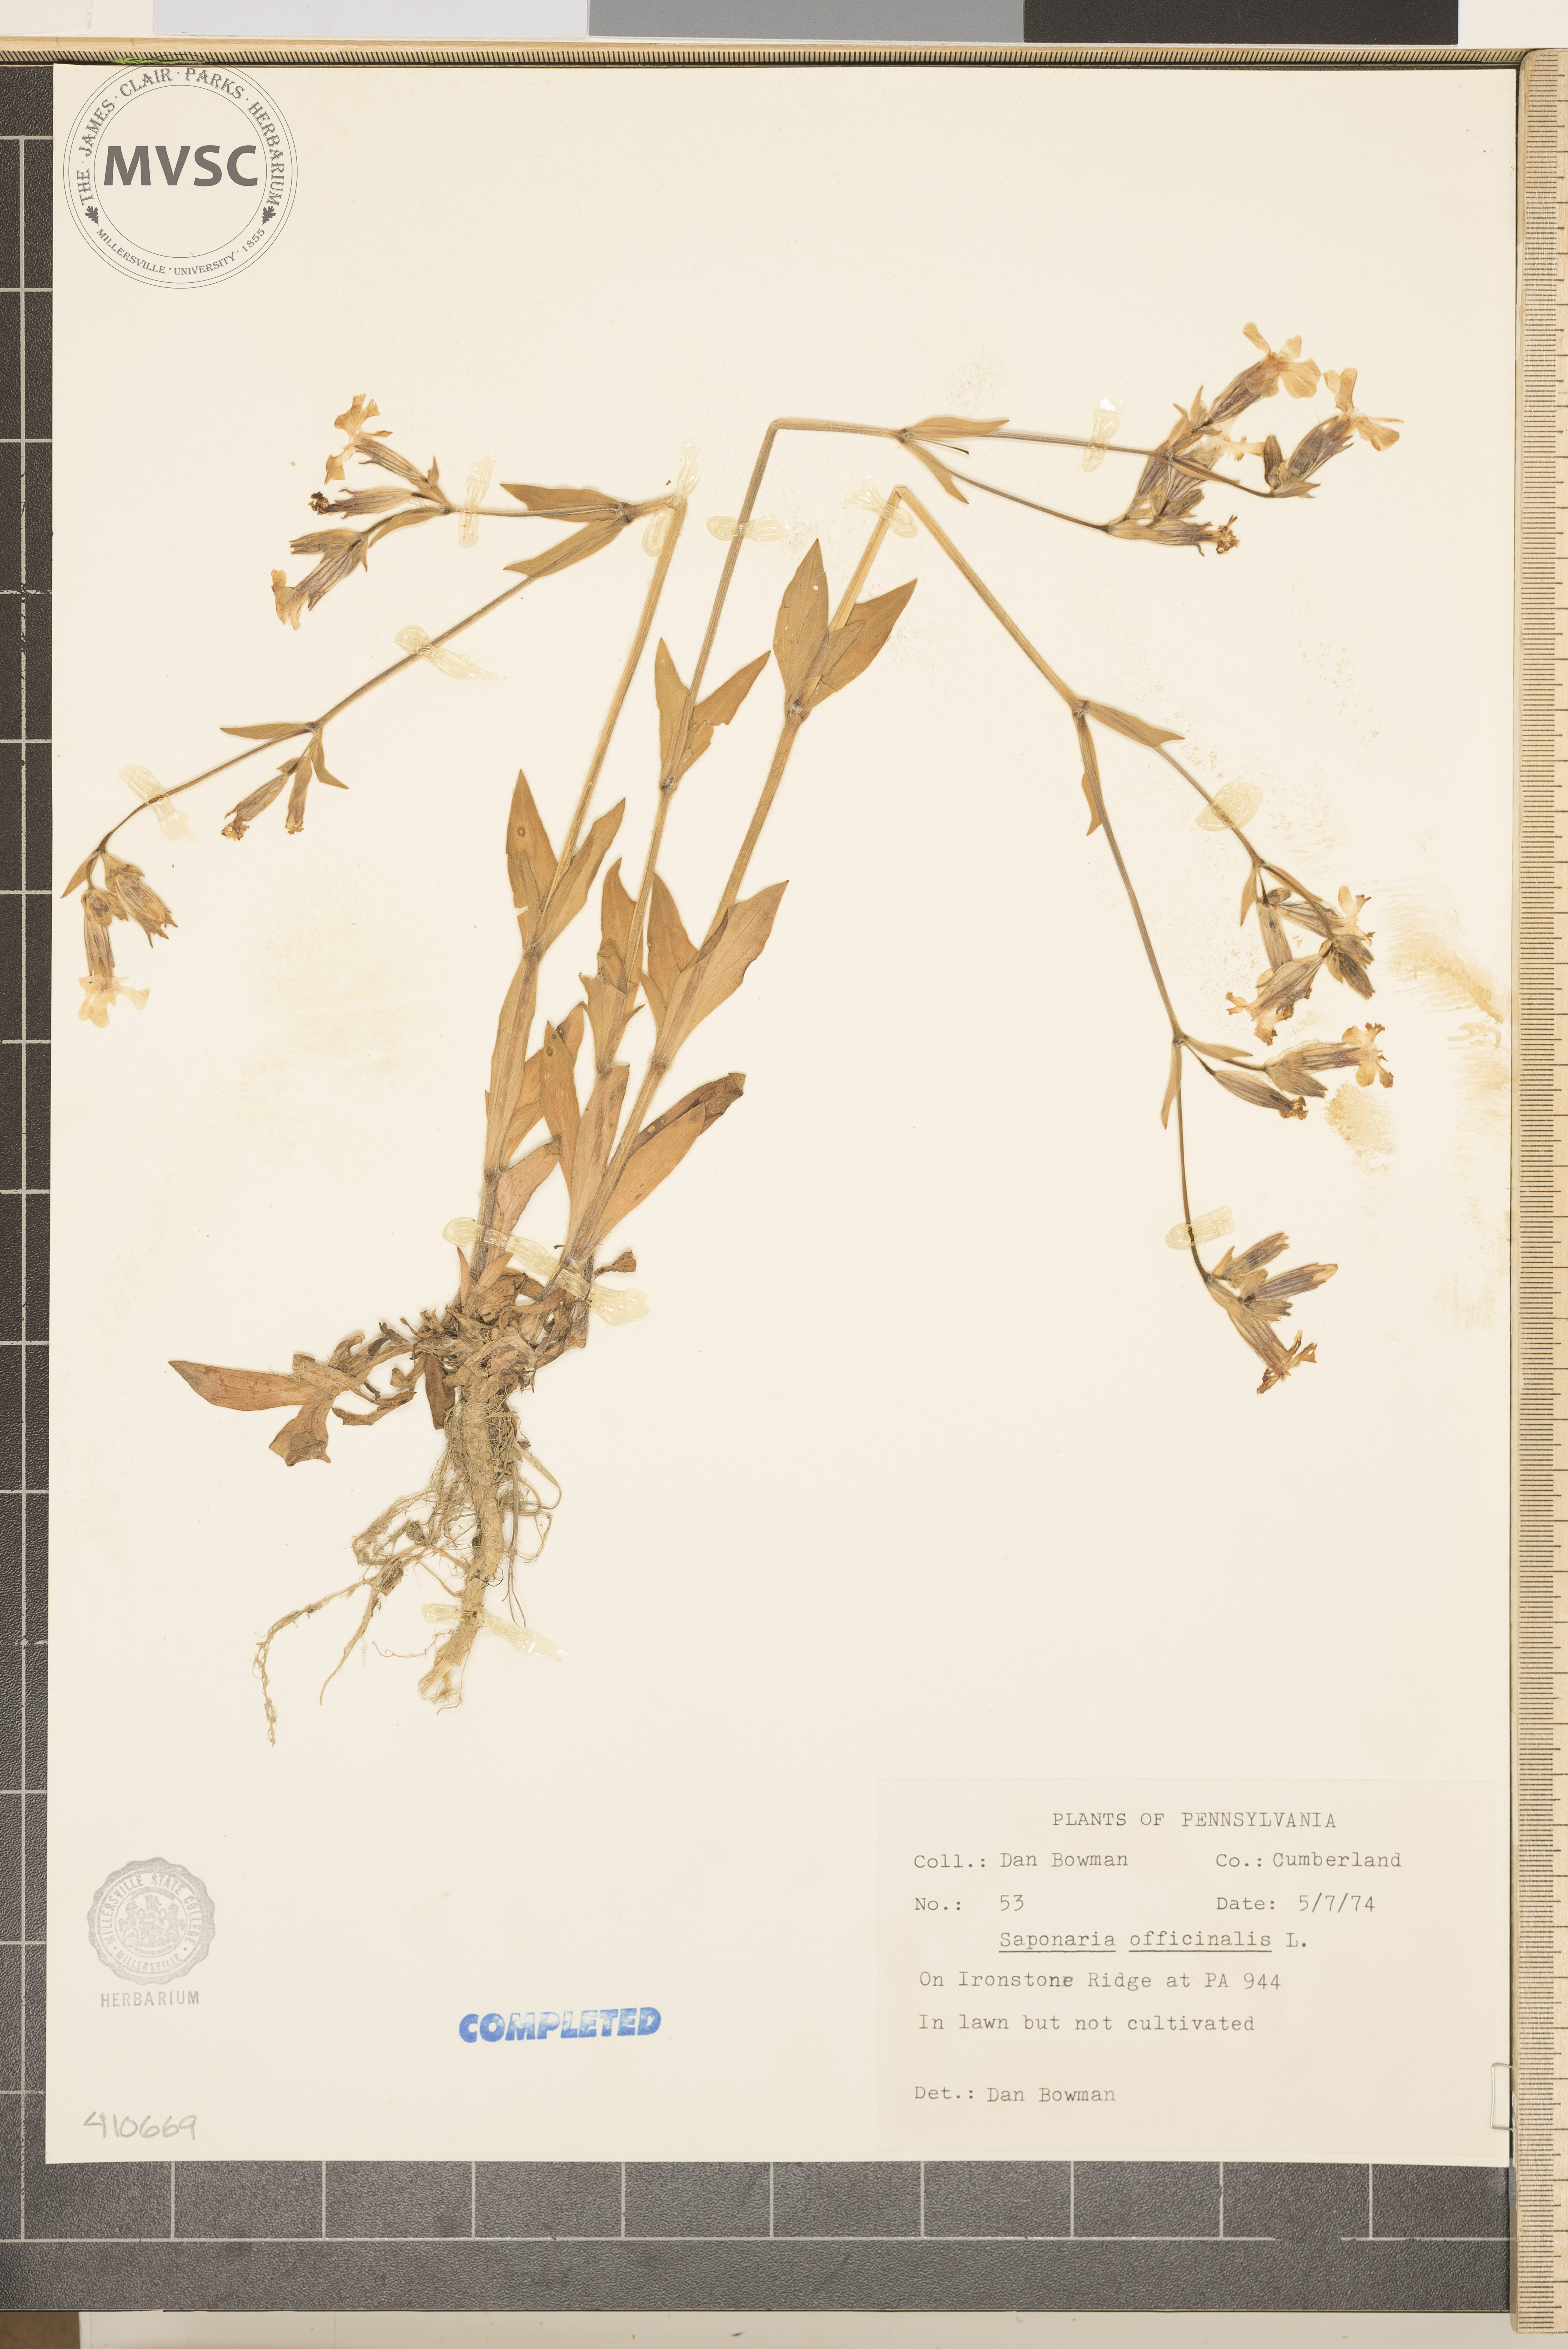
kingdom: Plantae
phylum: Tracheophyta
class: Magnoliopsida
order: Caryophyllales
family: Caryophyllaceae
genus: Saponaria
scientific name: Saponaria officinalis
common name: Soapwort
